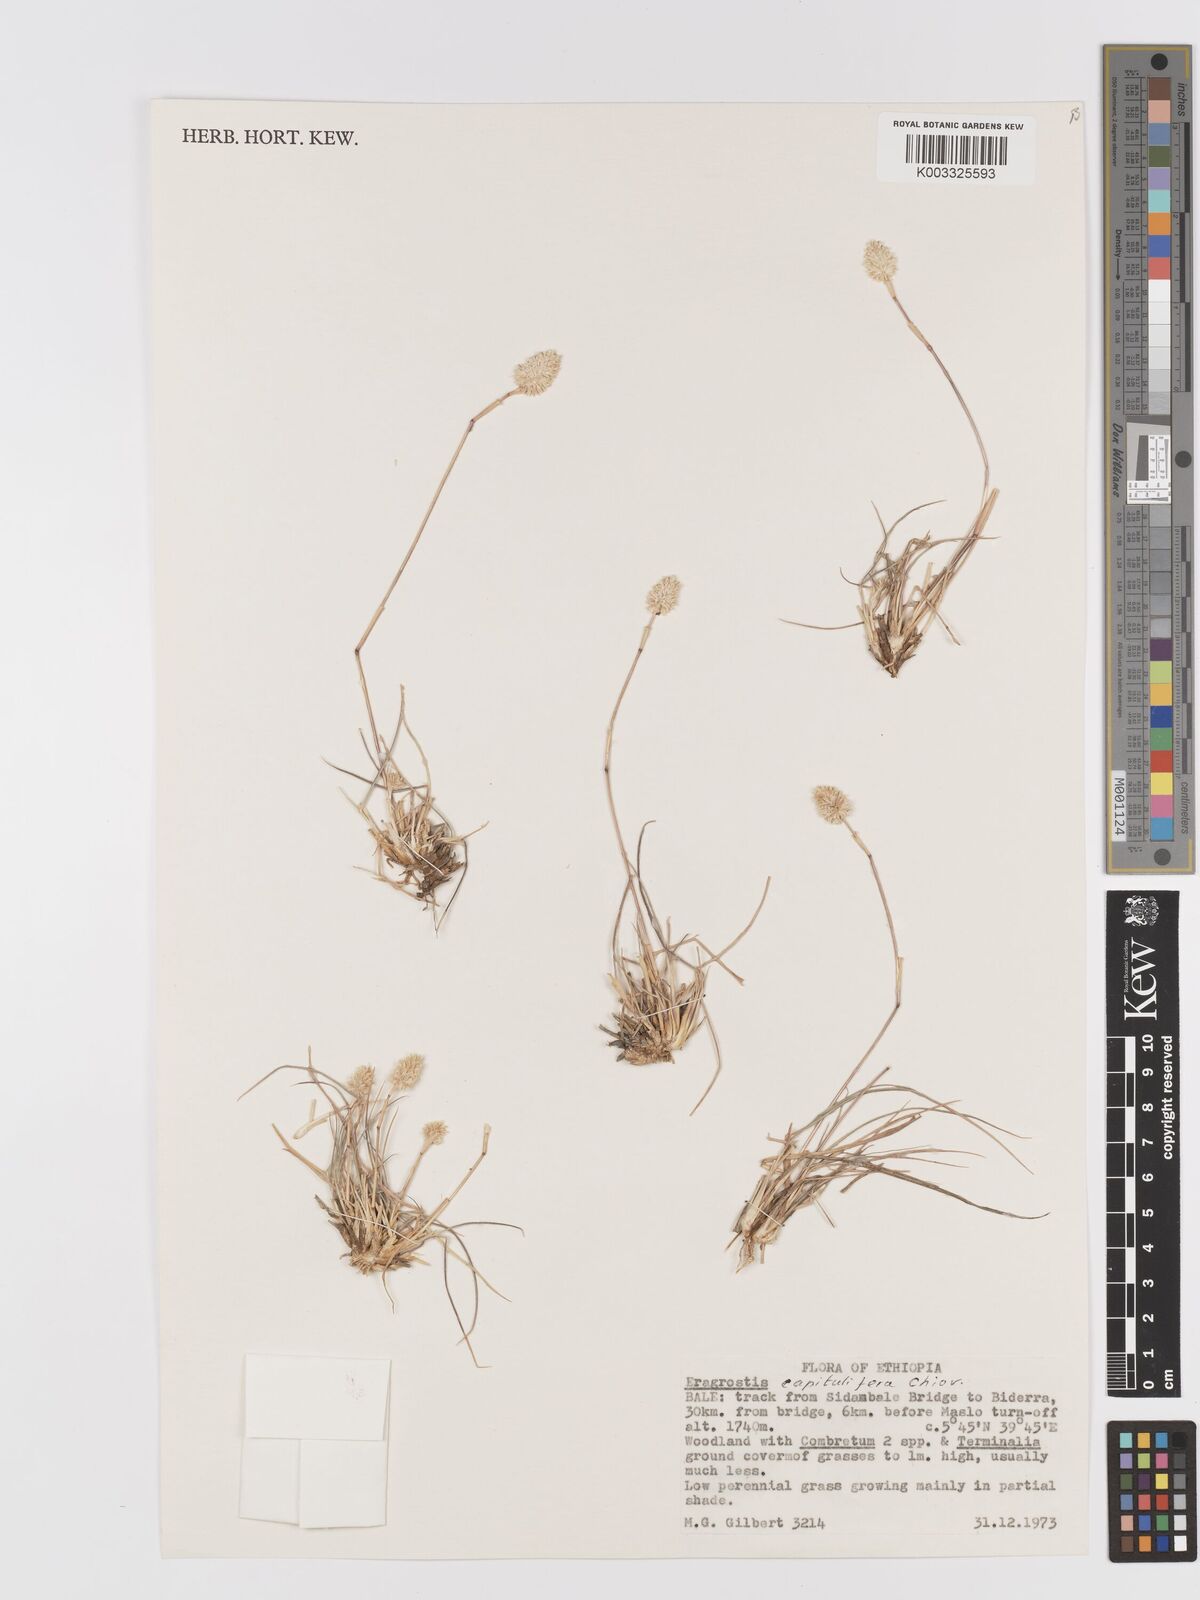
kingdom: Plantae
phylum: Tracheophyta
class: Liliopsida
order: Poales
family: Poaceae
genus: Eragrostis
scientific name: Eragrostis capitulifera
